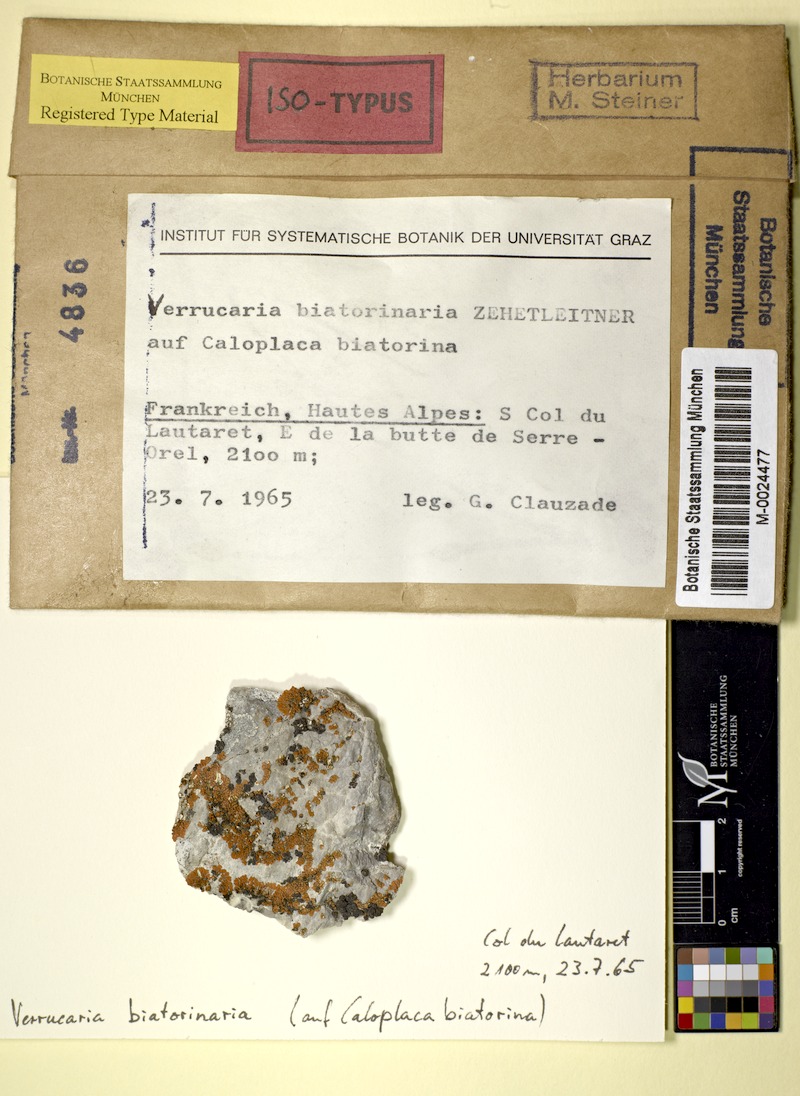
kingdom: Fungi
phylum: Ascomycota
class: Lecanoromycetes
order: Teloschistales
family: Teloschistaceae
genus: Calogaya
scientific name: Calogaya biatorina
